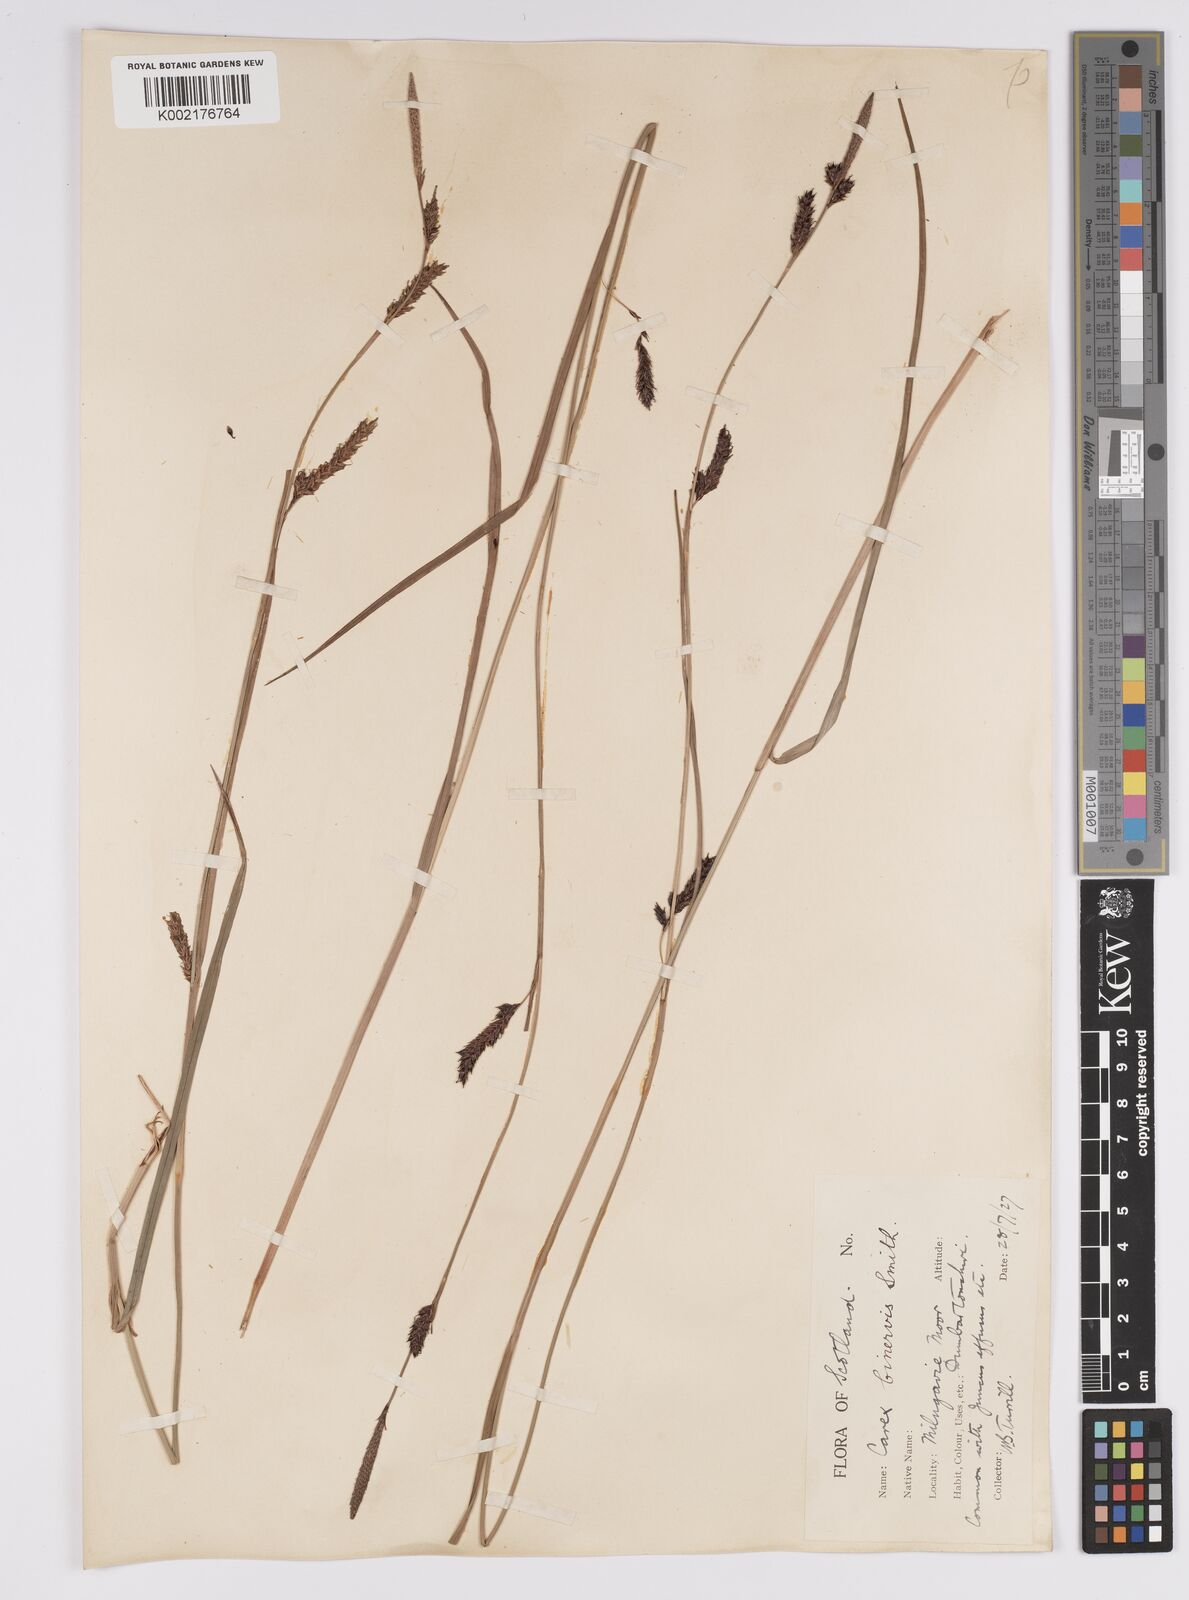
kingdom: Plantae
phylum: Tracheophyta
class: Liliopsida
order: Poales
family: Cyperaceae
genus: Carex
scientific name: Carex binervis
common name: Green-ribbed sedge
